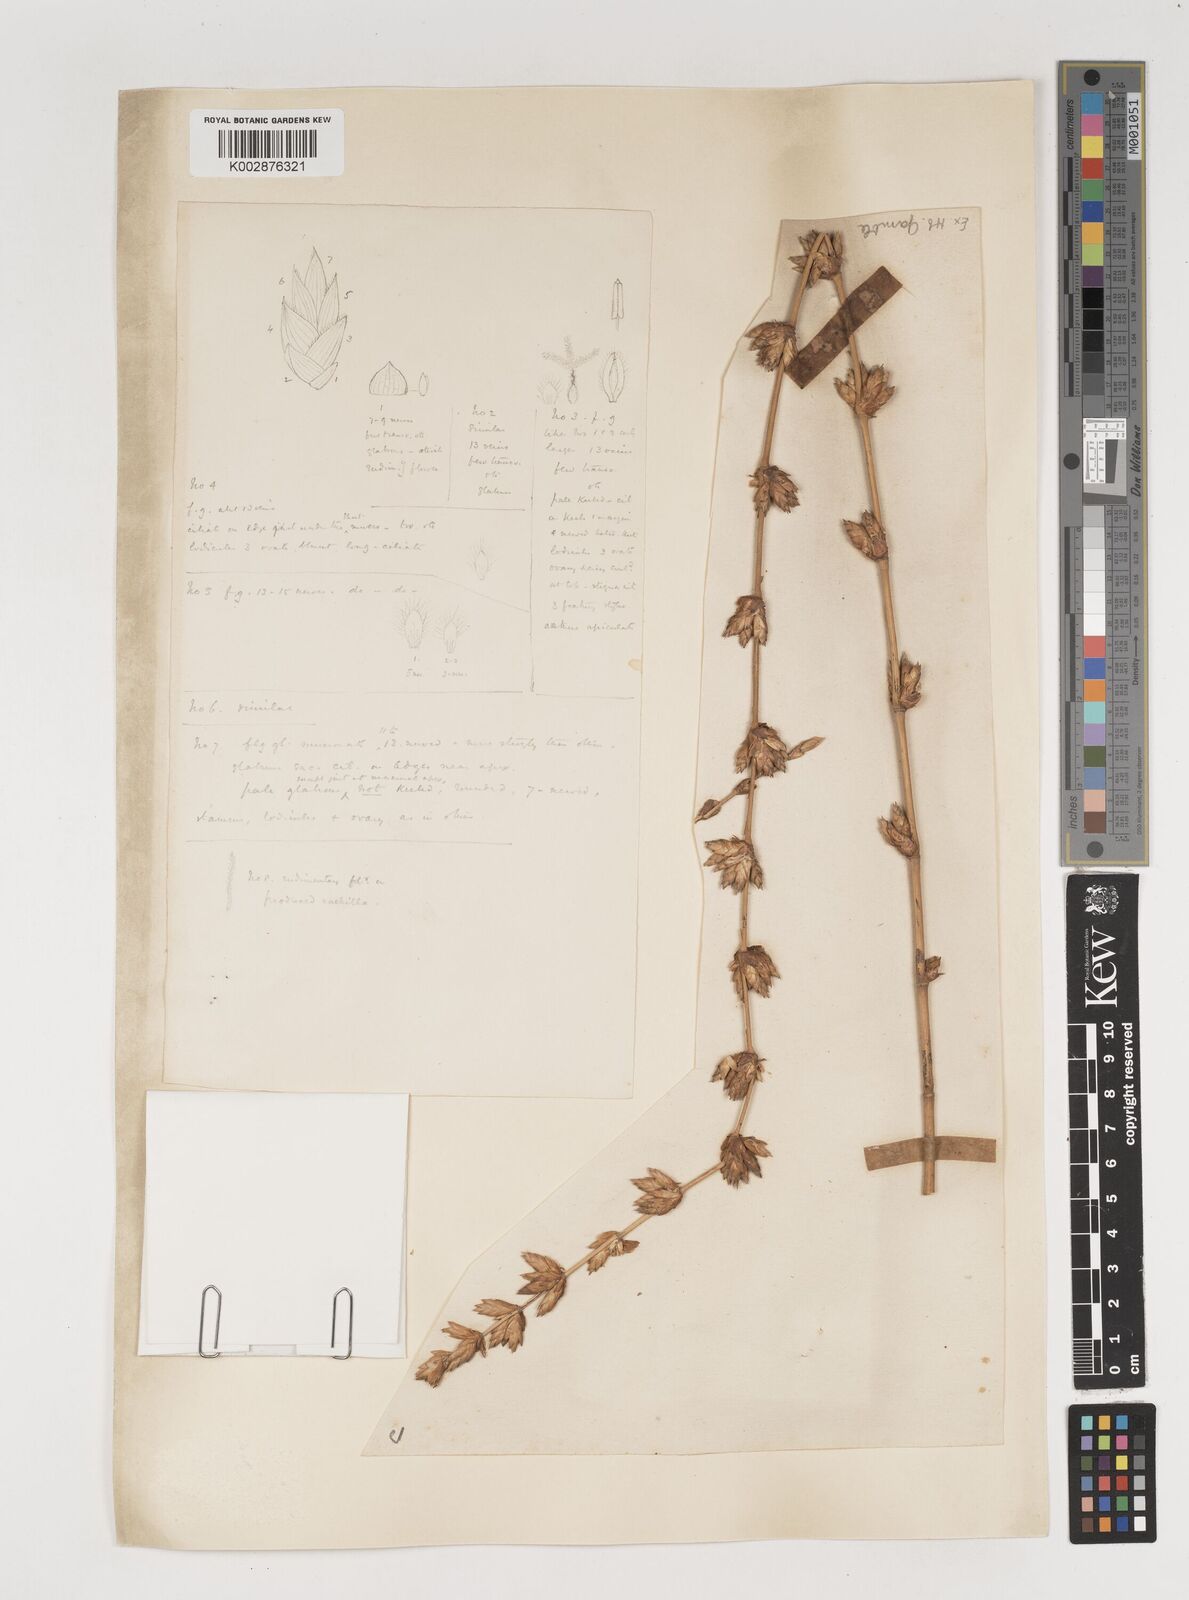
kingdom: Plantae
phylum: Tracheophyta
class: Liliopsida
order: Poales
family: Poaceae
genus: Bambusa
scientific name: Bambusa balcooa
